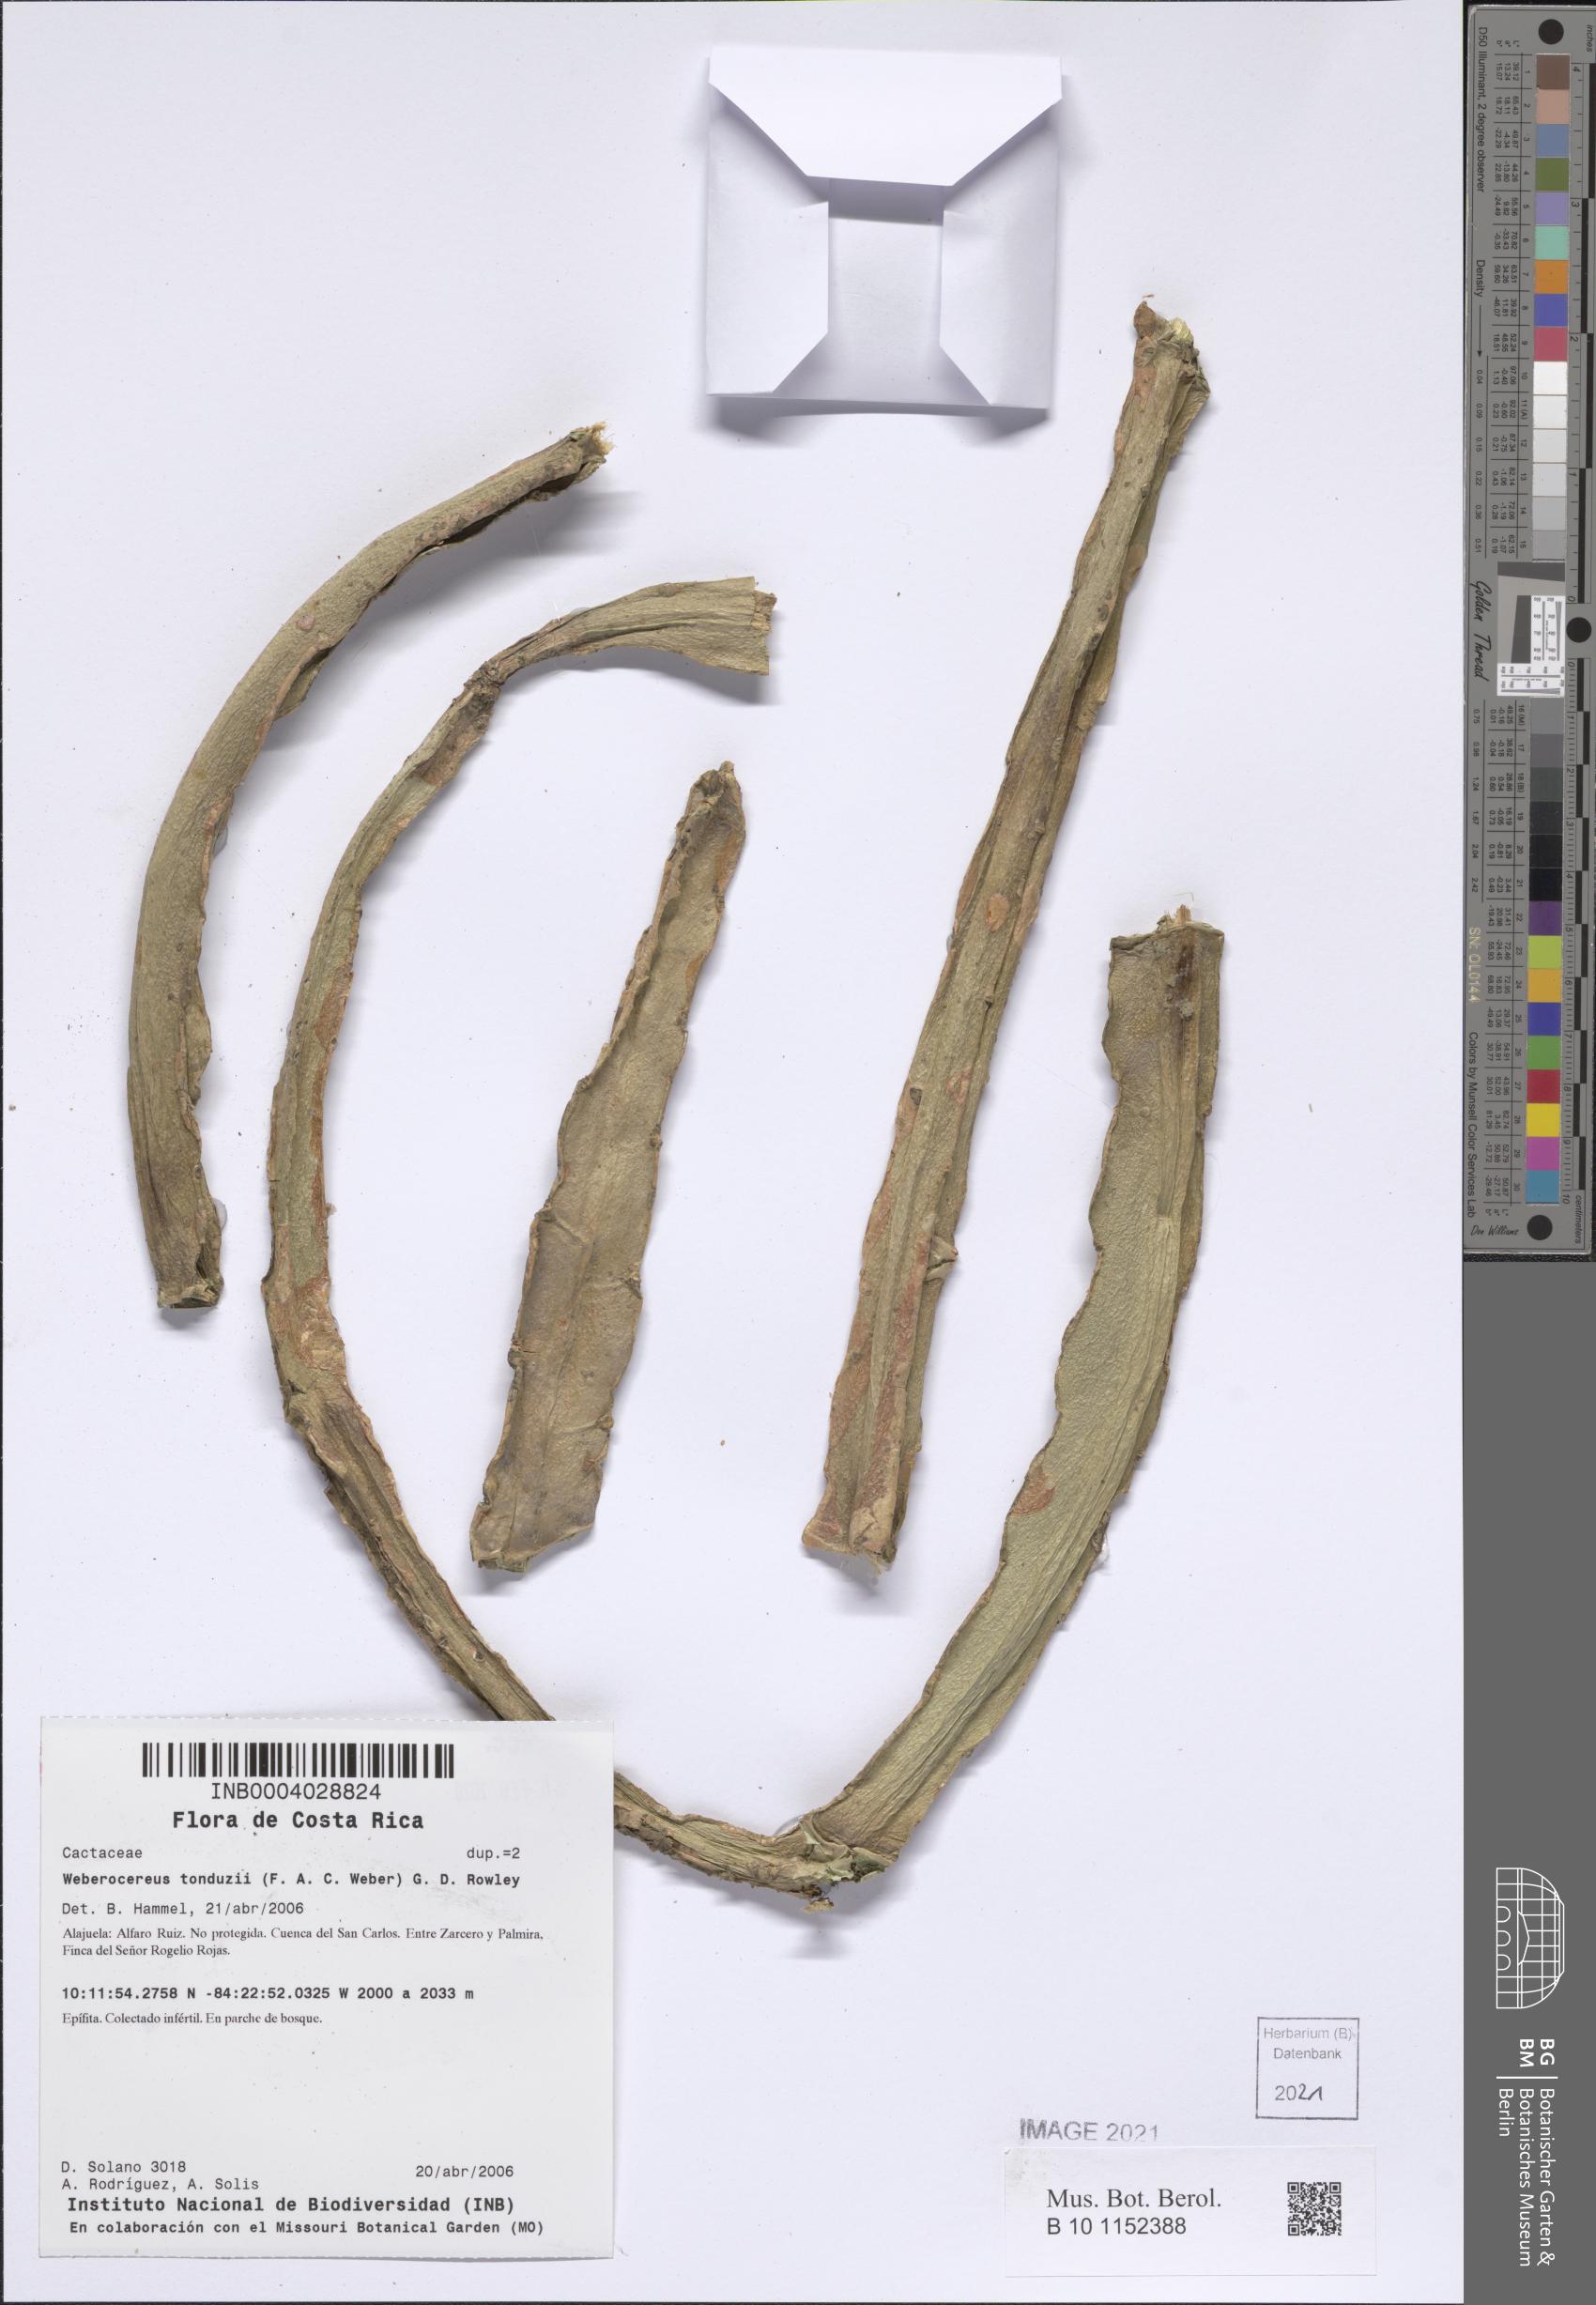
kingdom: Plantae
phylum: Tracheophyta
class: Magnoliopsida
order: Caryophyllales
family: Cactaceae
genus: Selenicereus
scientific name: Selenicereus tonduzii
